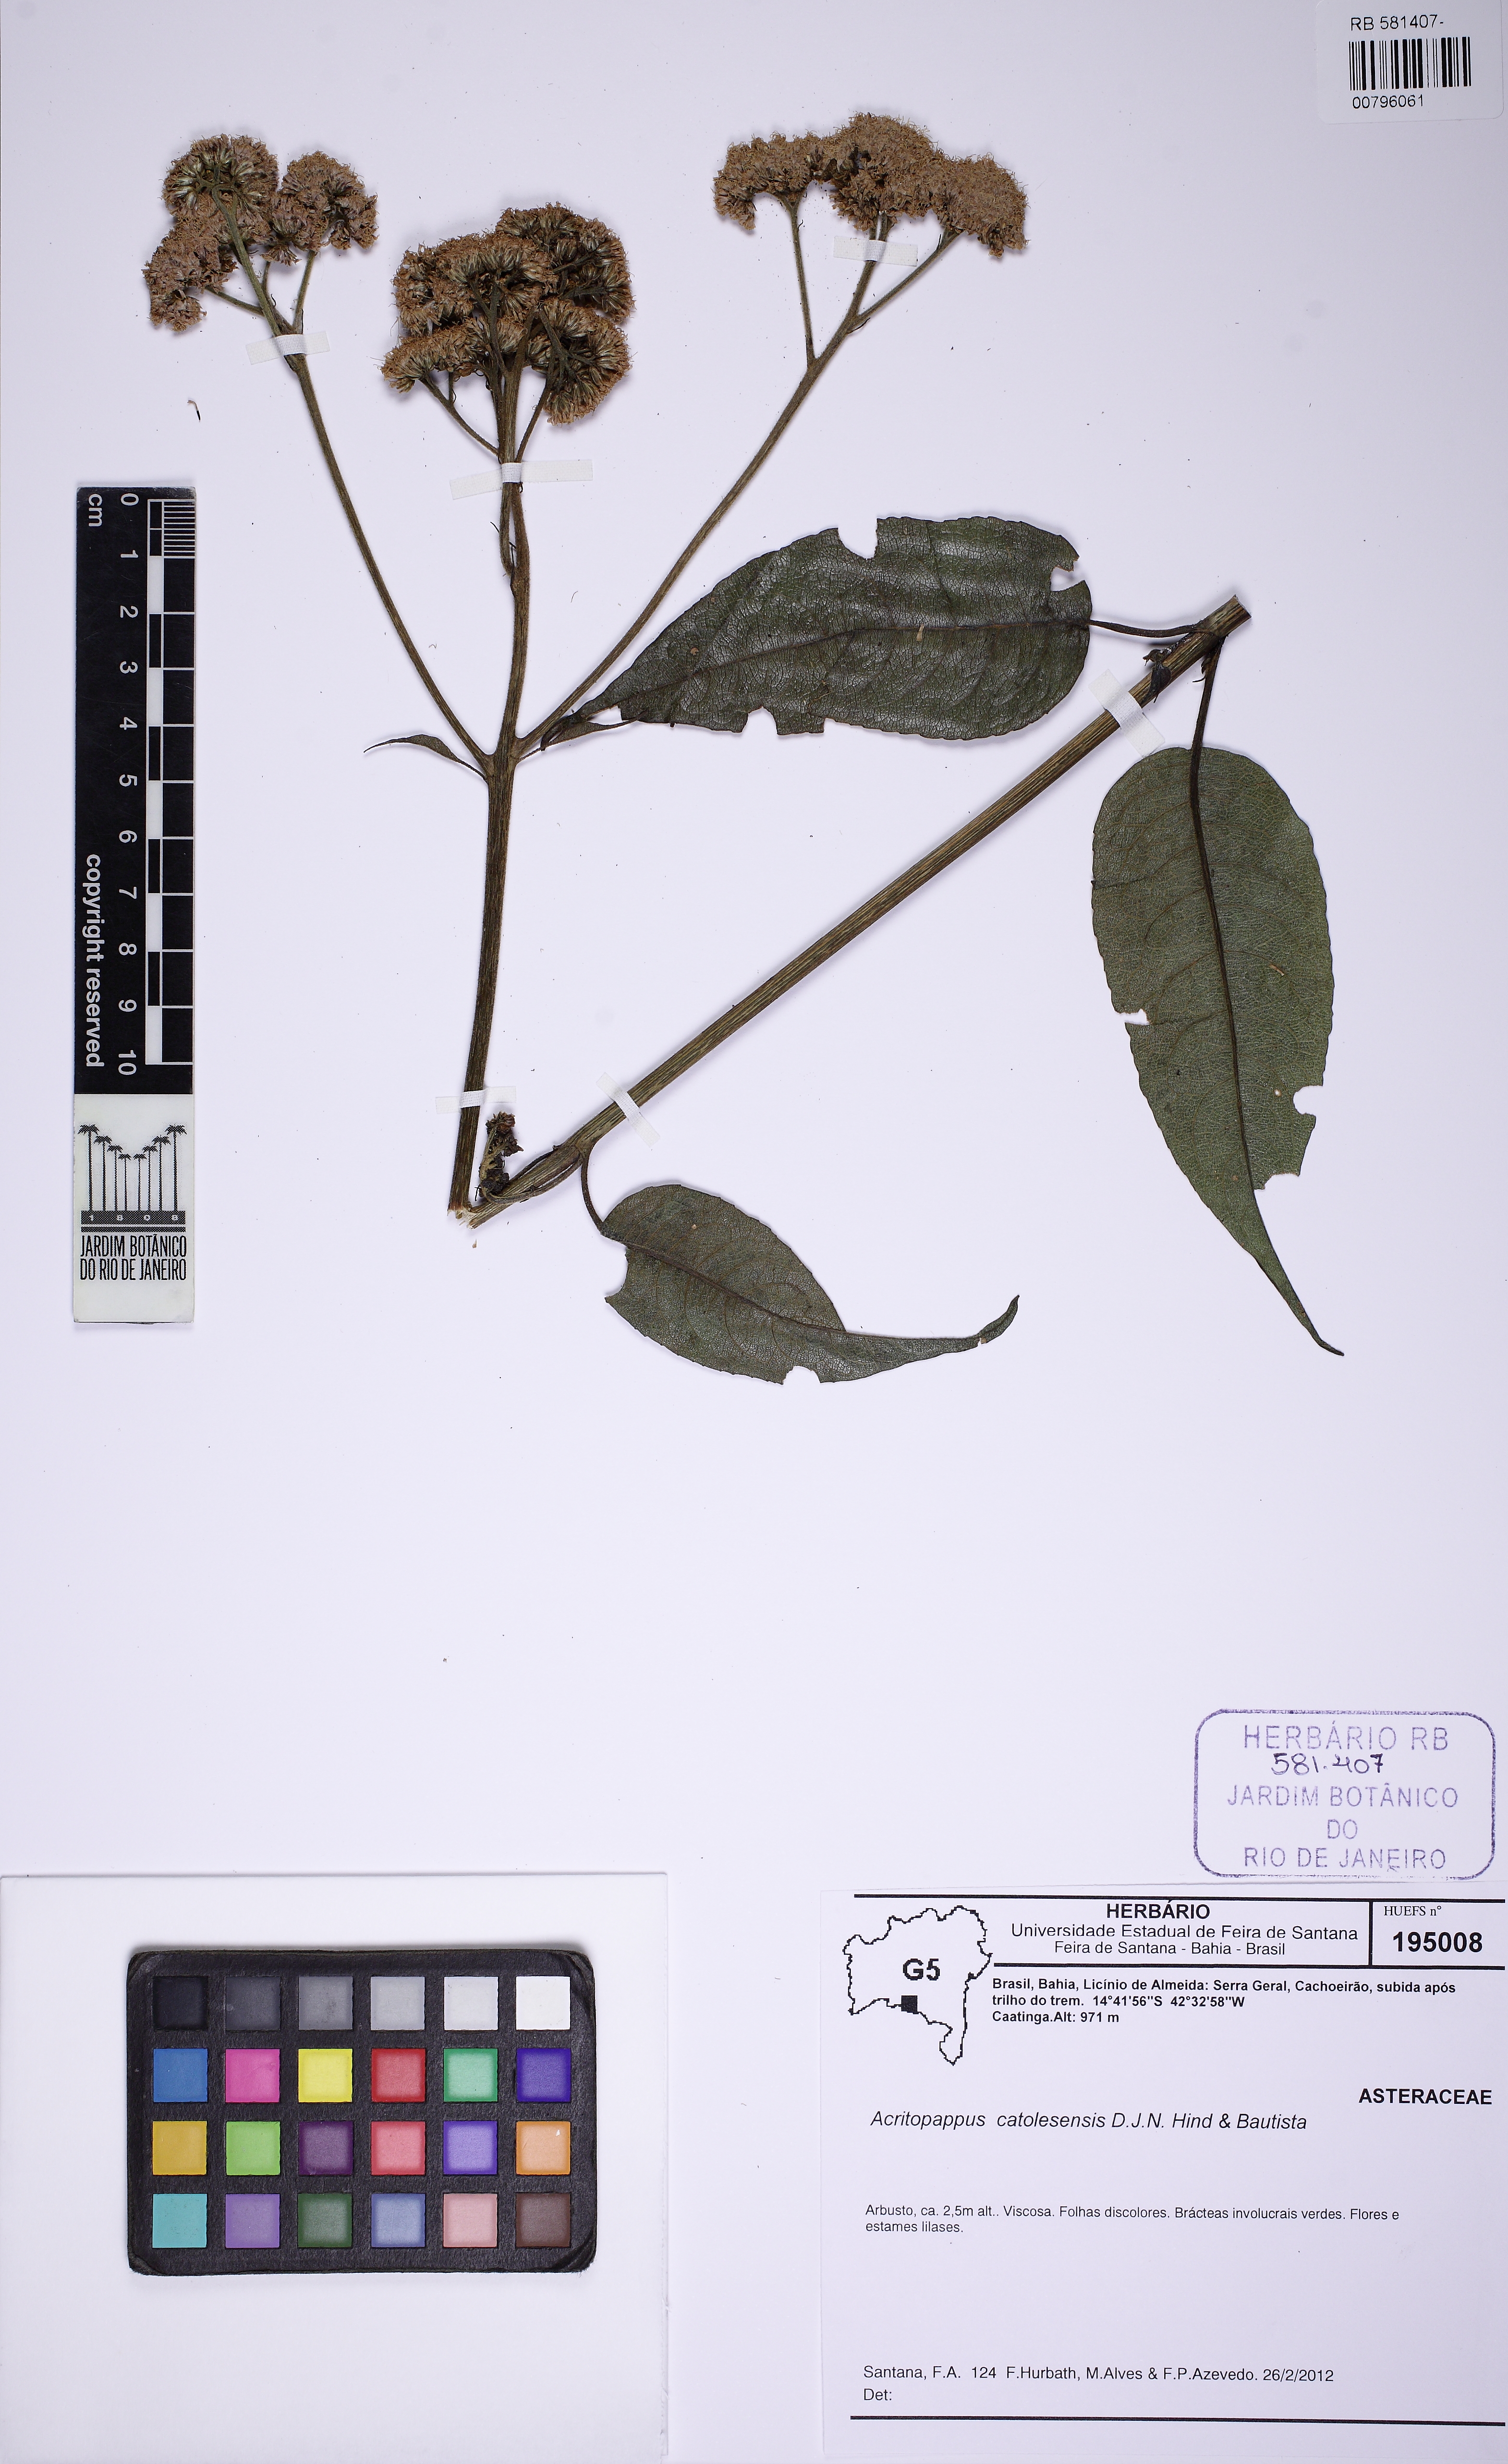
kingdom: Plantae
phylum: Tracheophyta
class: Magnoliopsida
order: Asterales
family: Asteraceae
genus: Acritopappus
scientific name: Acritopappus catolesensis
